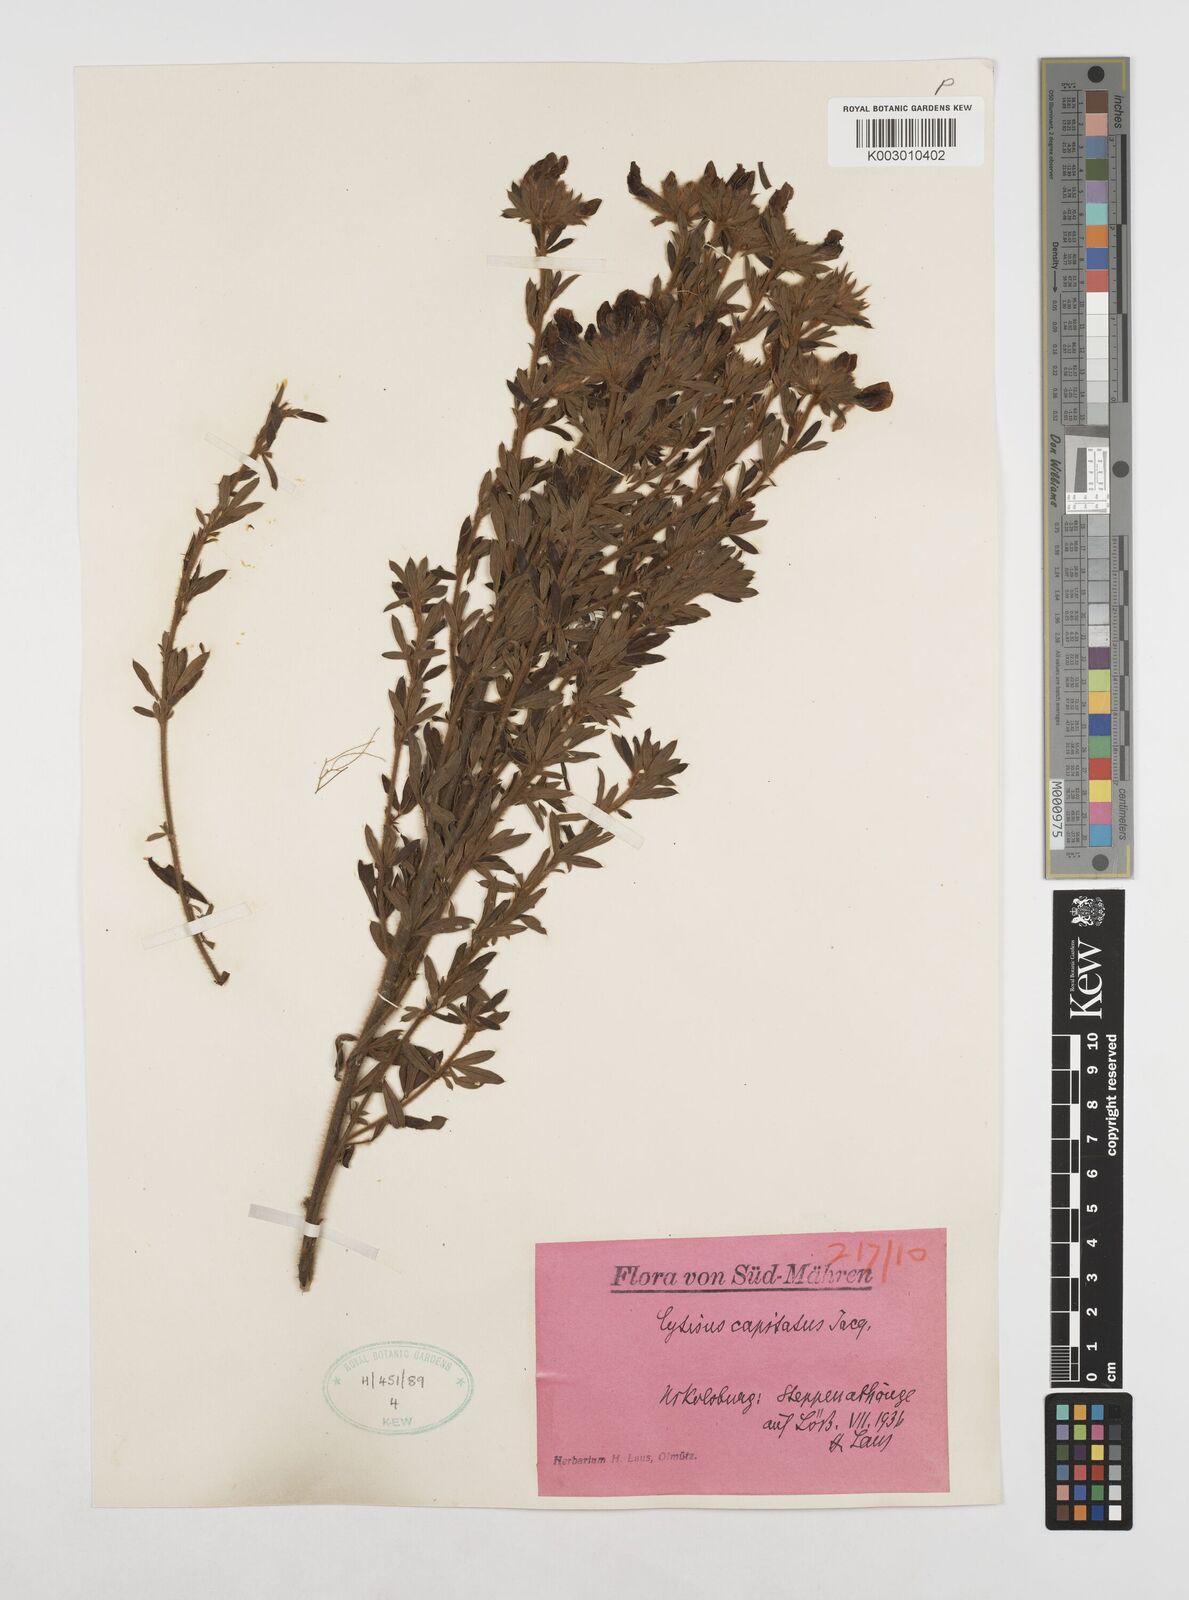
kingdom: Plantae
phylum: Tracheophyta
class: Magnoliopsida
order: Fabales
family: Fabaceae
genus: Chamaecytisus
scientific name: Chamaecytisus rochelii
